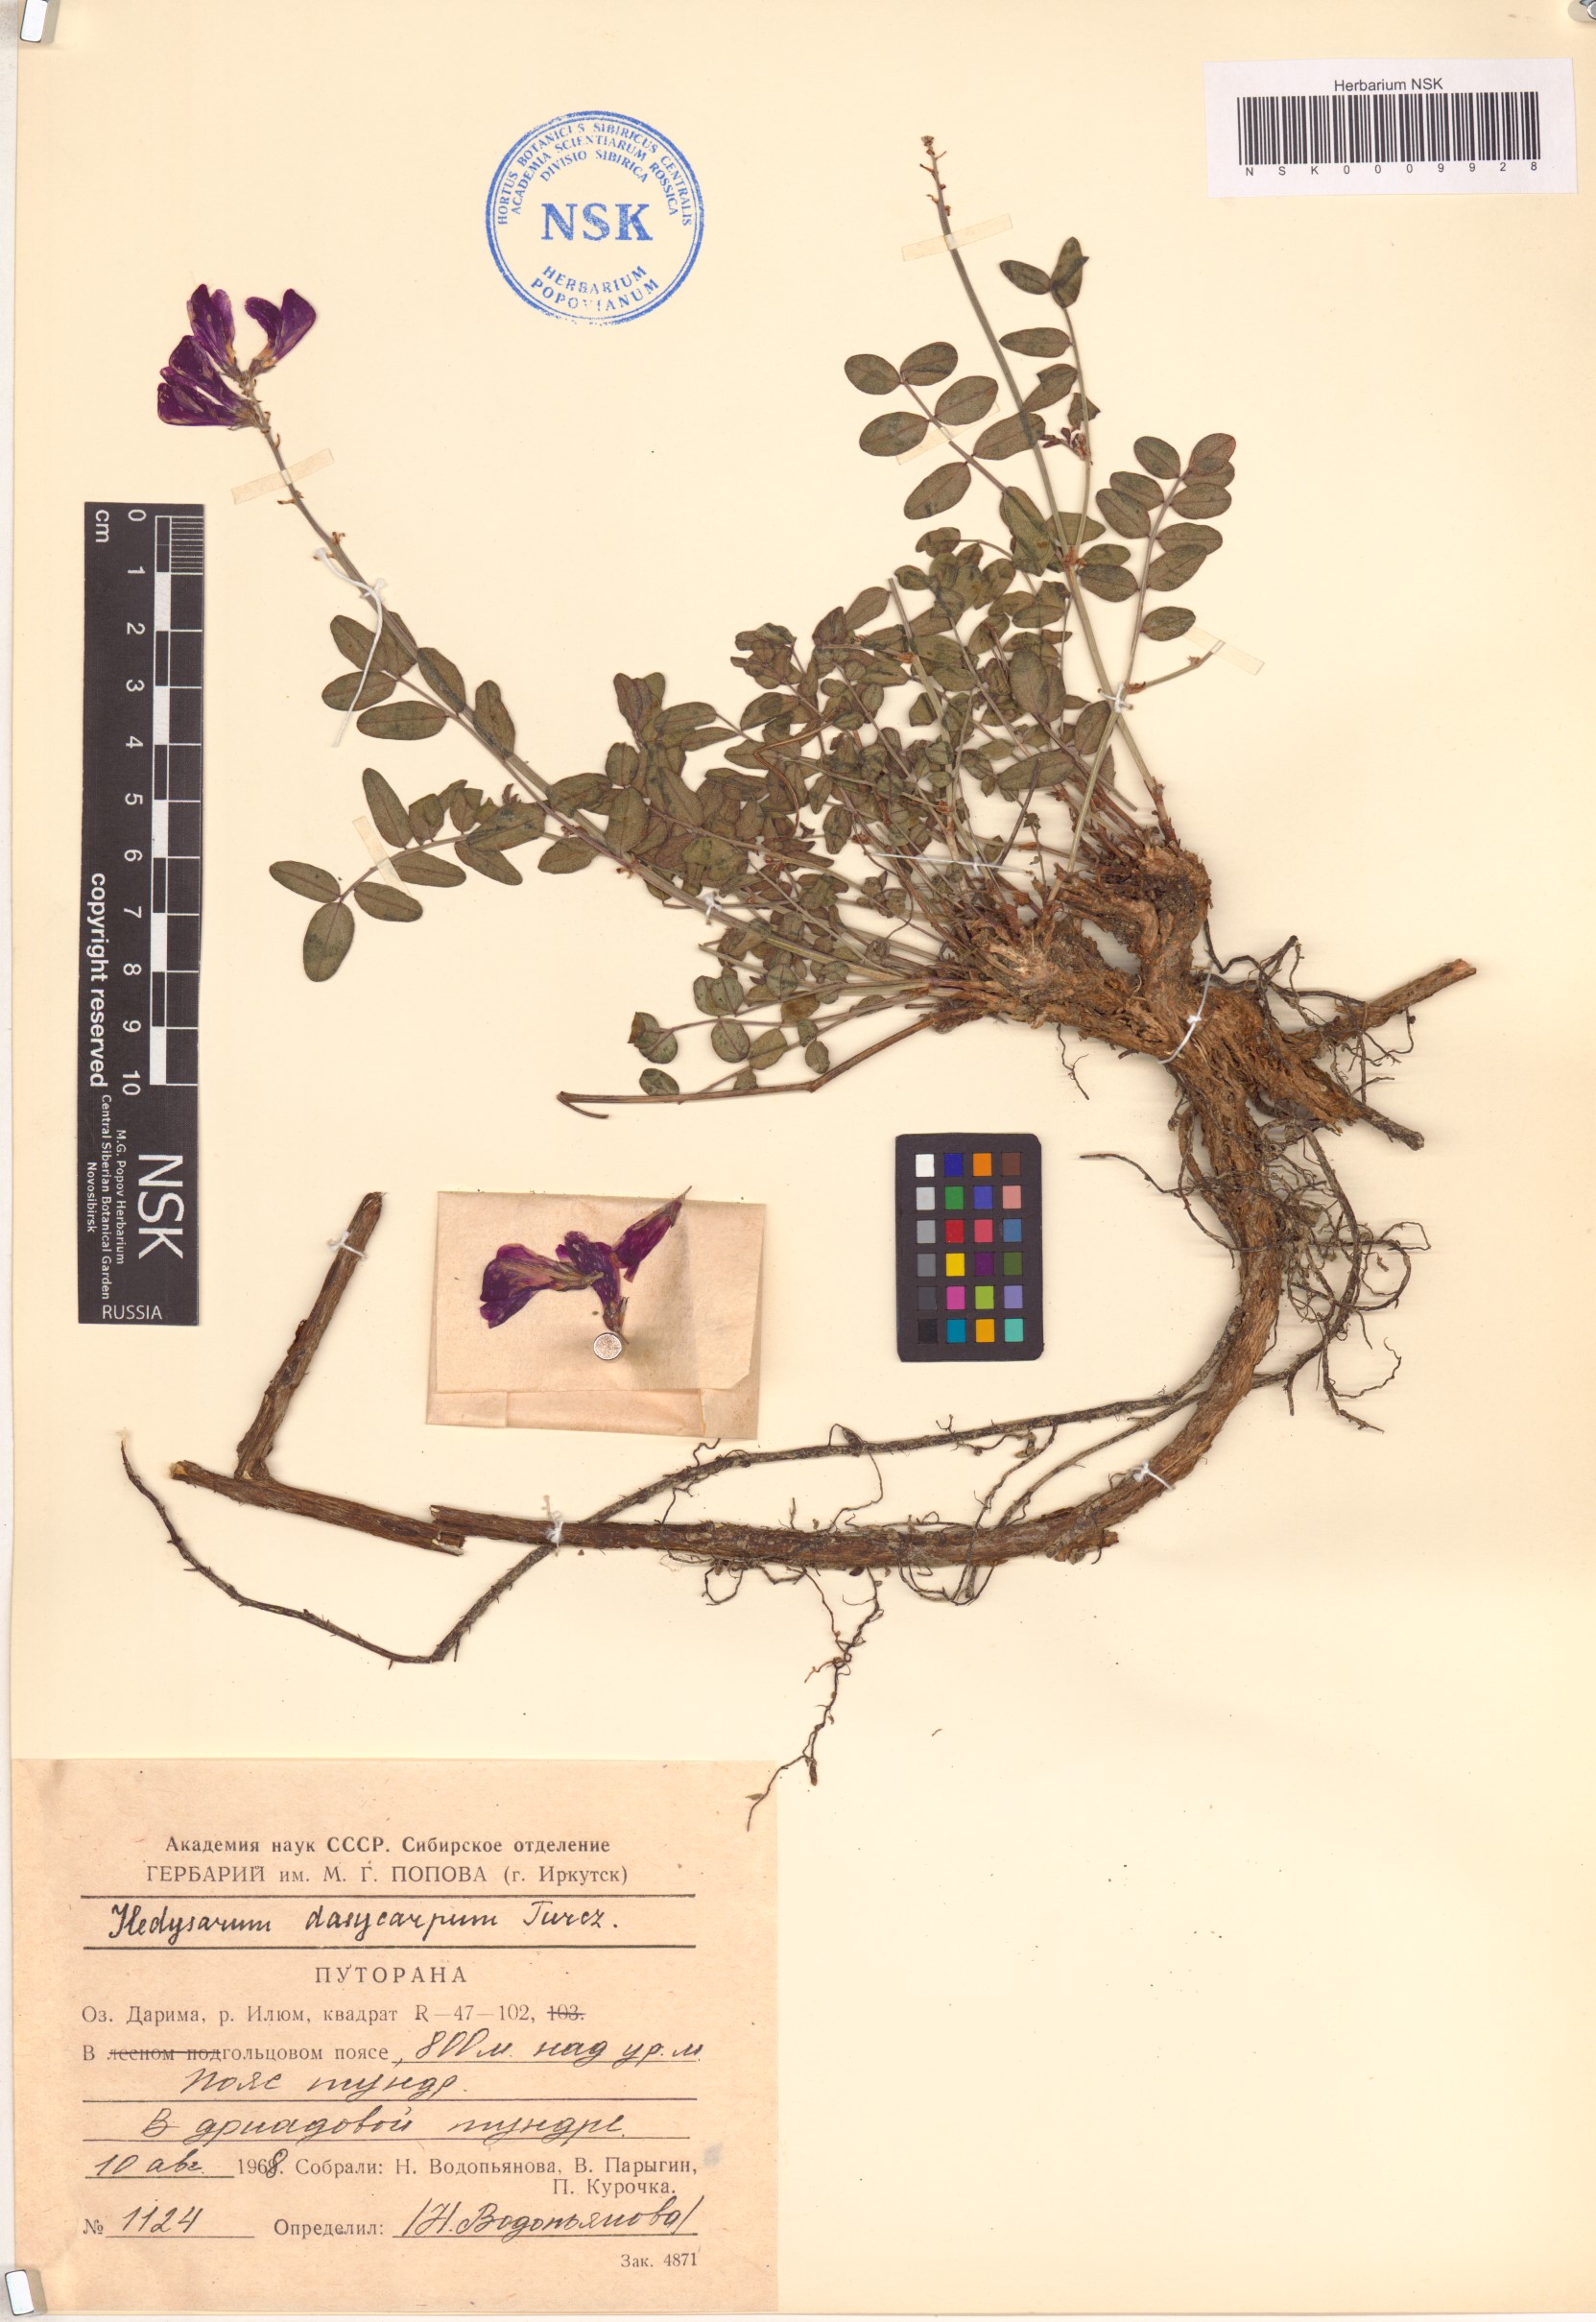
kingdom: Plantae
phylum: Tracheophyta
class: Magnoliopsida
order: Fabales
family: Fabaceae
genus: Hedysarum
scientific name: Hedysarum dasycarpum
